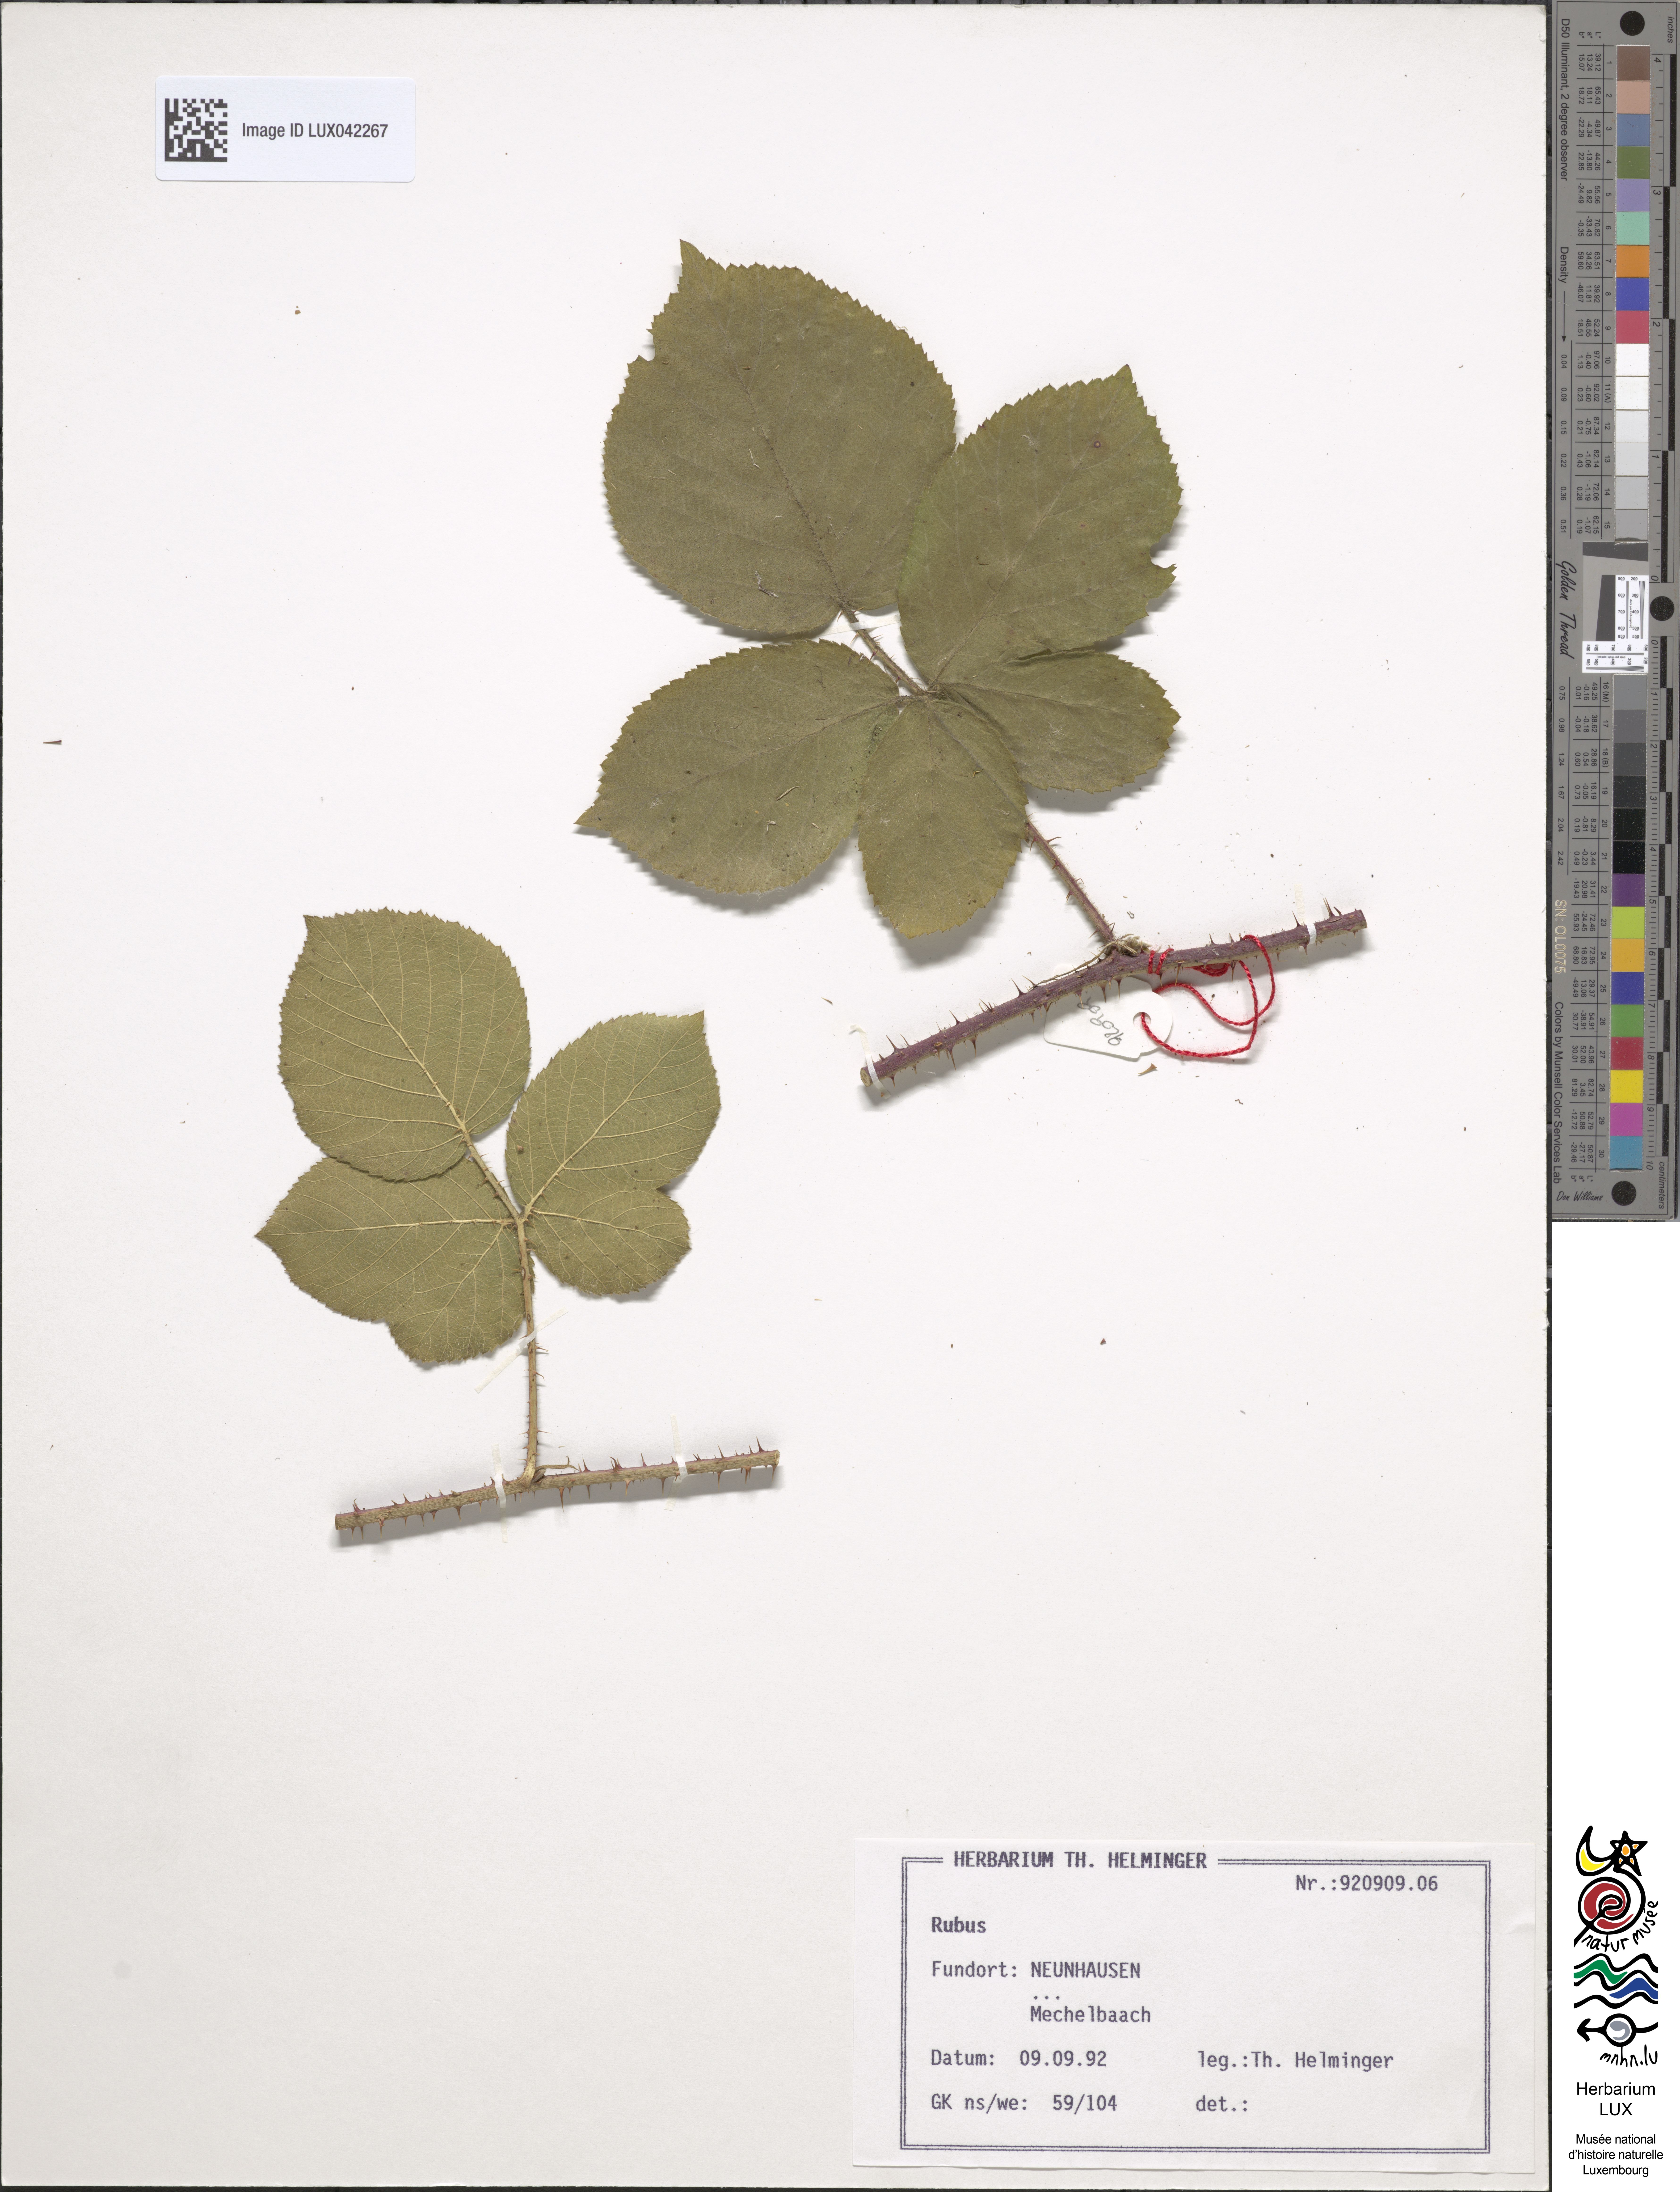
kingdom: Plantae
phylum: Tracheophyta
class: Magnoliopsida
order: Rosales
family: Rosaceae
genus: Rubus
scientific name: Rubus
